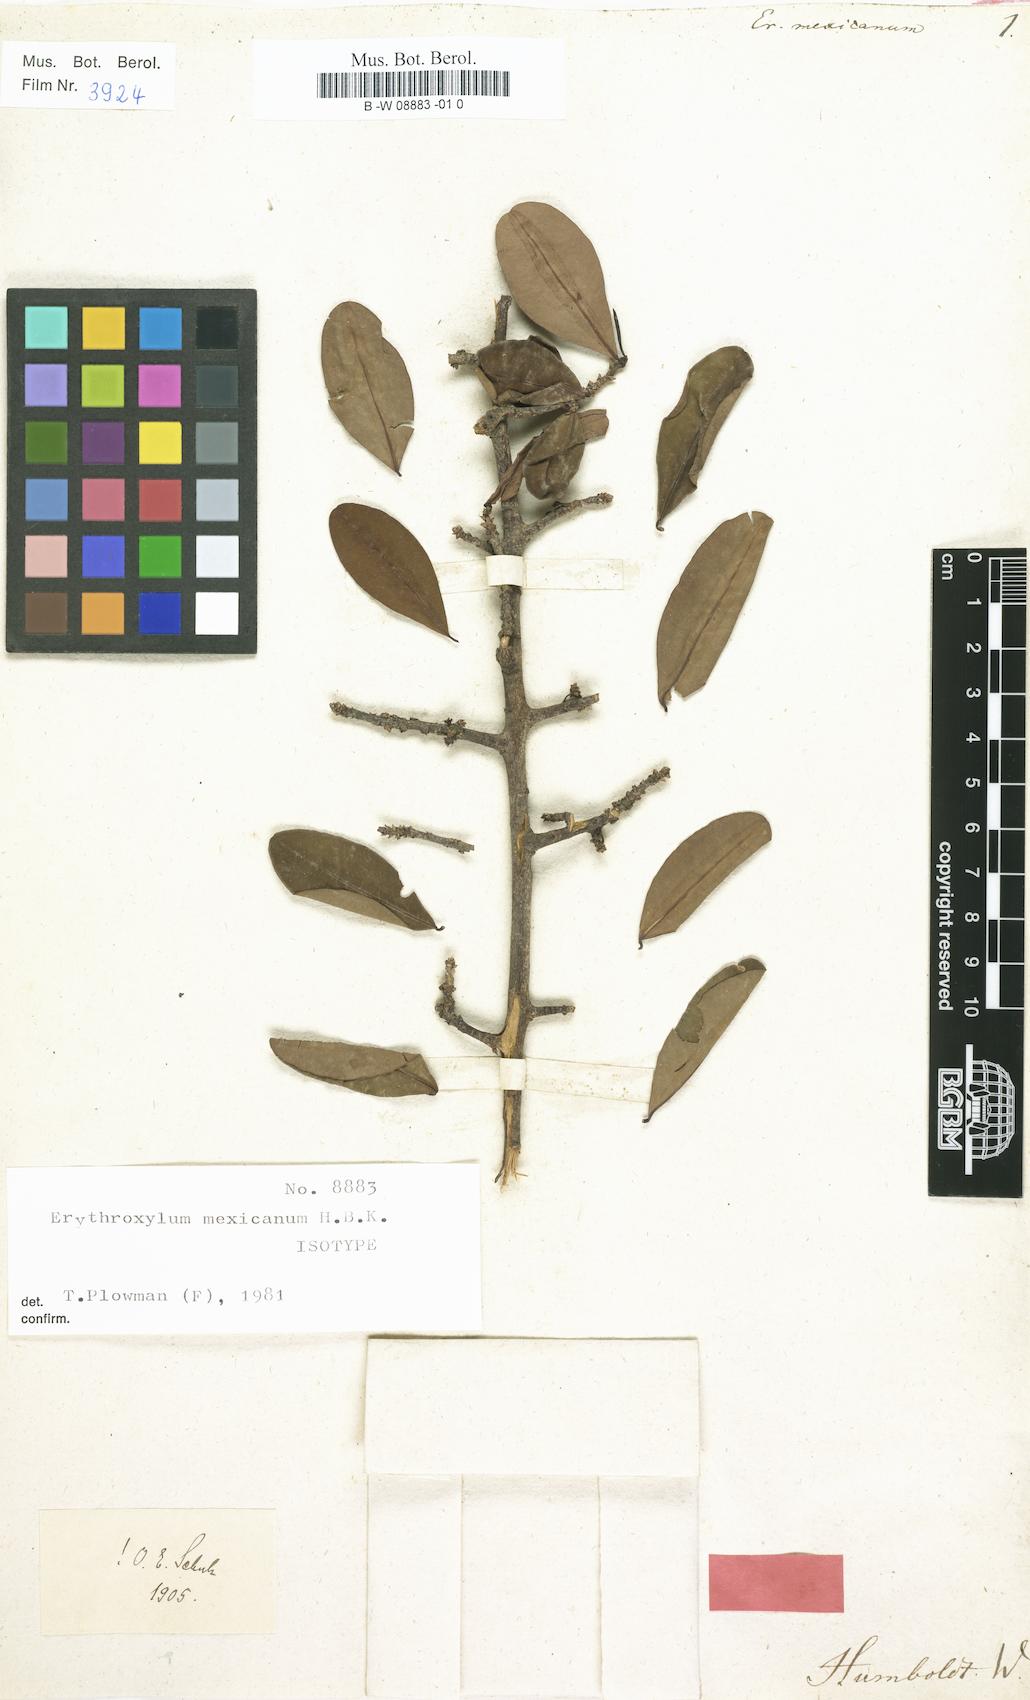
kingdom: Plantae
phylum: Tracheophyta
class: Magnoliopsida
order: Malpighiales
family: Erythroxylaceae
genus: Erythroxylum
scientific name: Erythroxylum mexicanum
